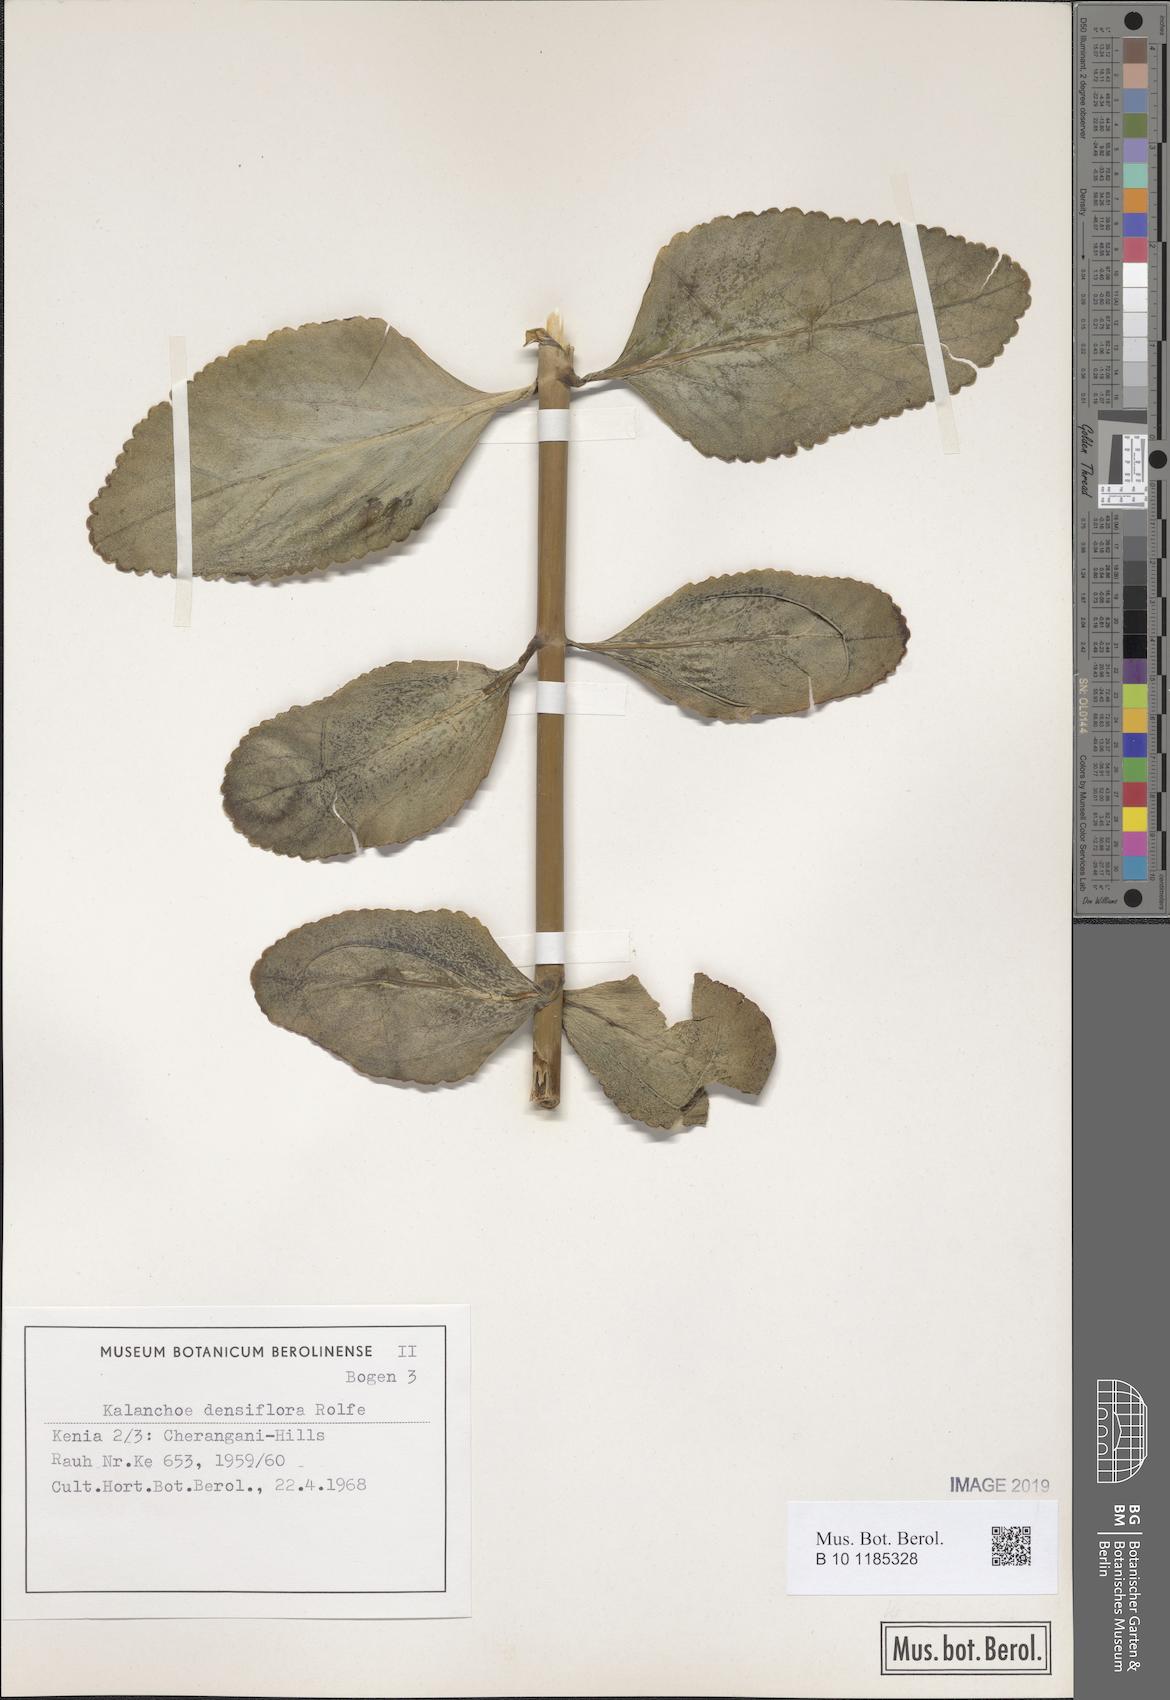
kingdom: Plantae
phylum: Tracheophyta
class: Magnoliopsida
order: Saxifragales
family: Crassulaceae
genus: Kalanchoe
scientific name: Kalanchoe densiflora
